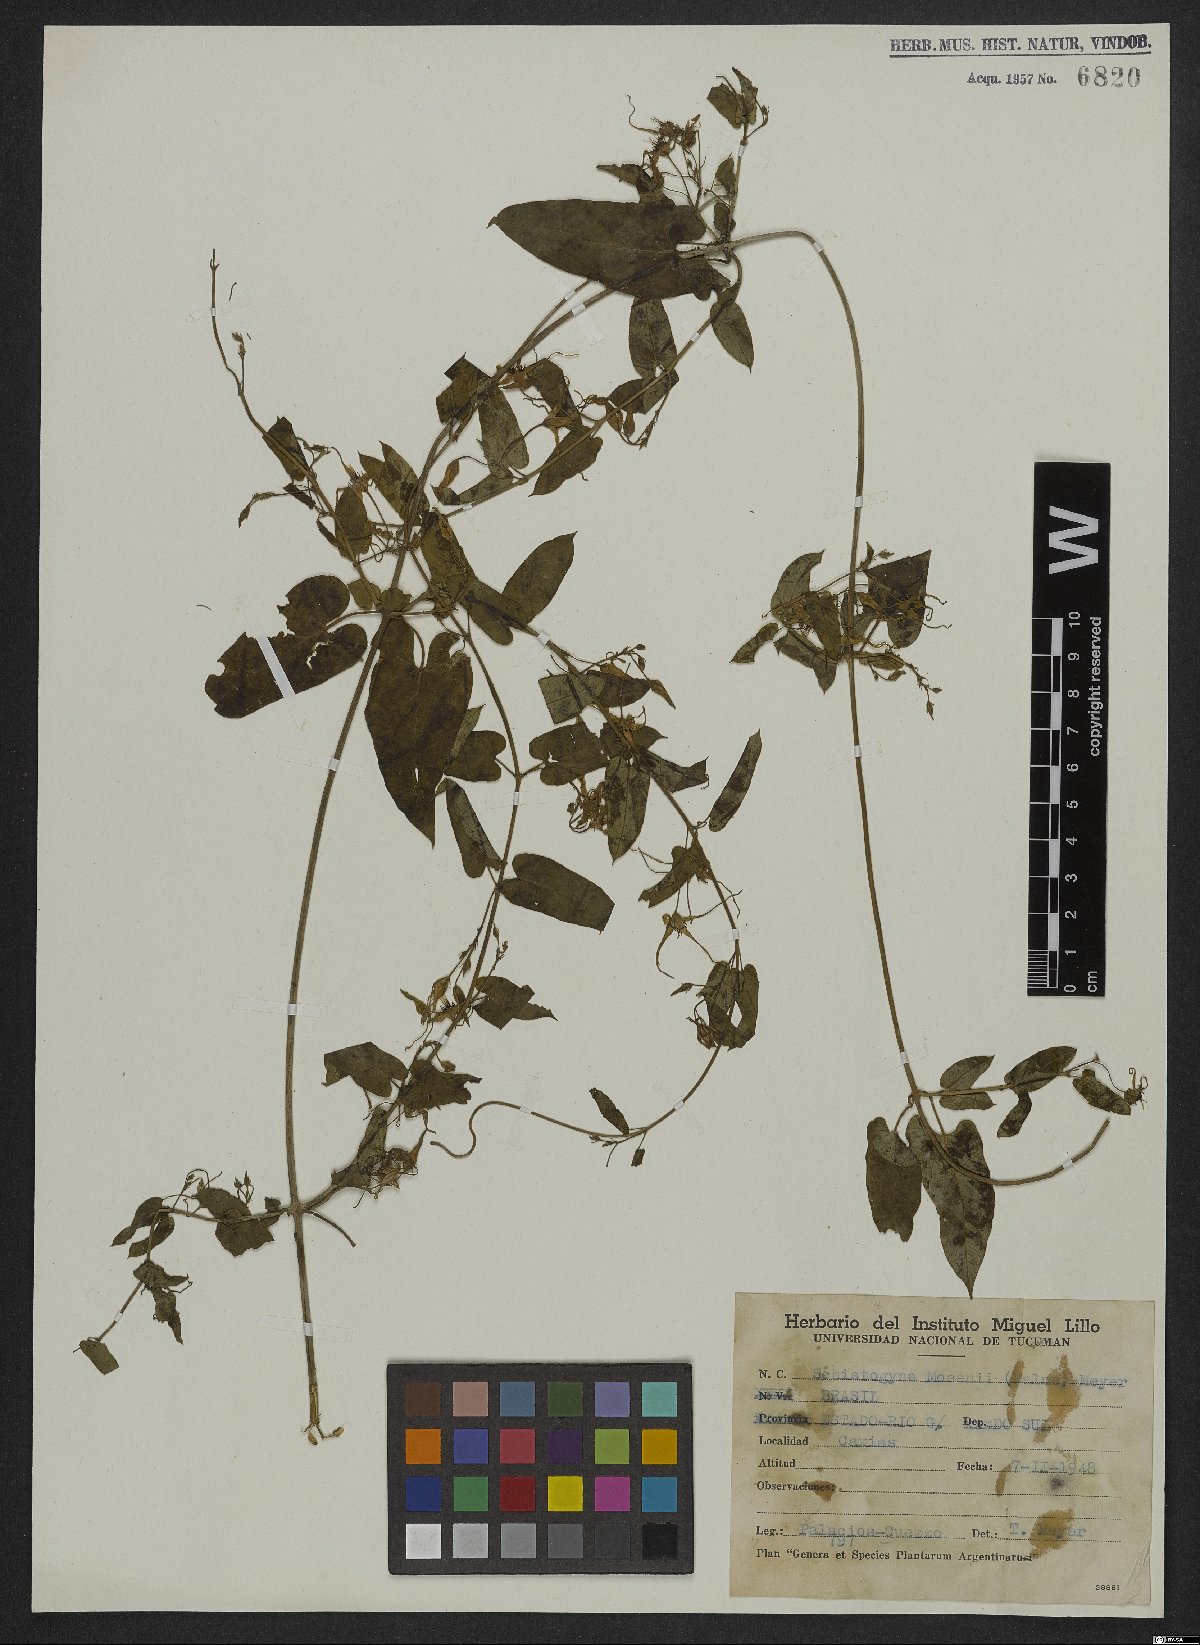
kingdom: Plantae
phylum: Tracheophyta
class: Magnoliopsida
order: Gentianales
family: Apocynaceae
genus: Oxypetalum
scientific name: Oxypetalum mosenii
